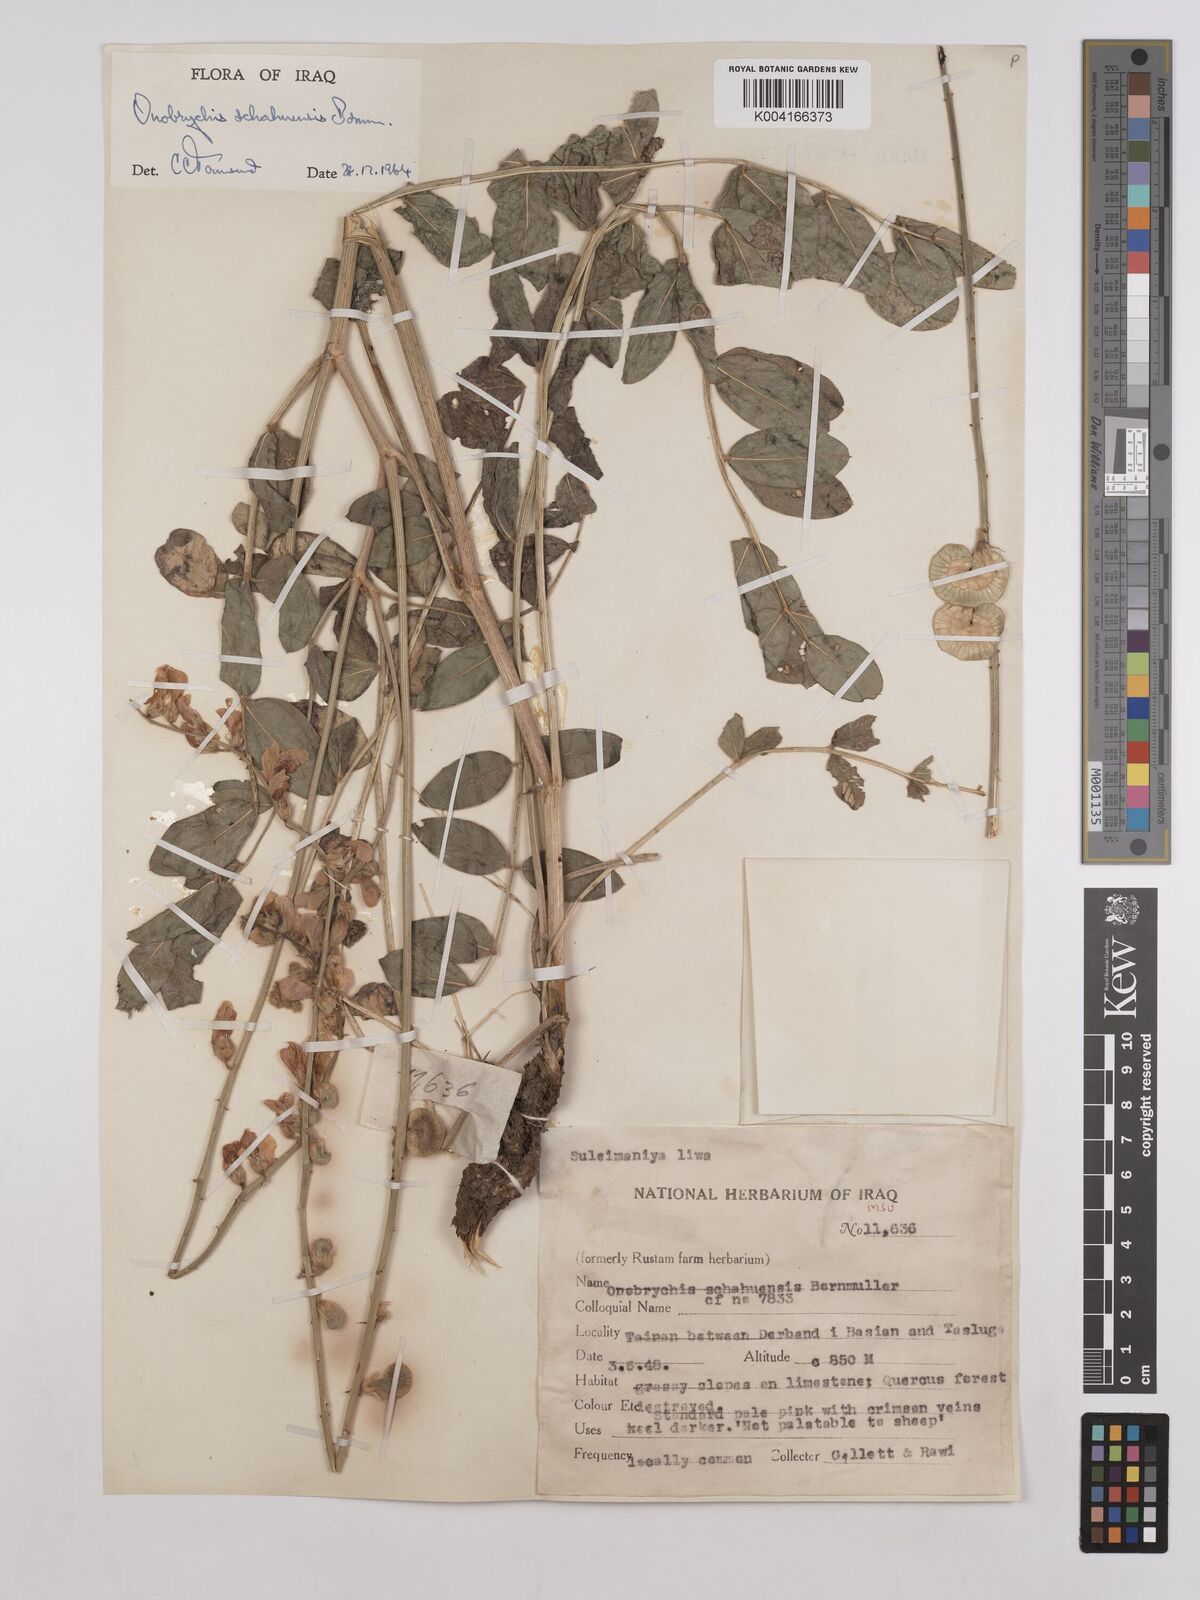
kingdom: Plantae
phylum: Tracheophyta
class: Magnoliopsida
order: Fabales
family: Fabaceae
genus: Onobrychis
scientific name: Onobrychis schahuensis
